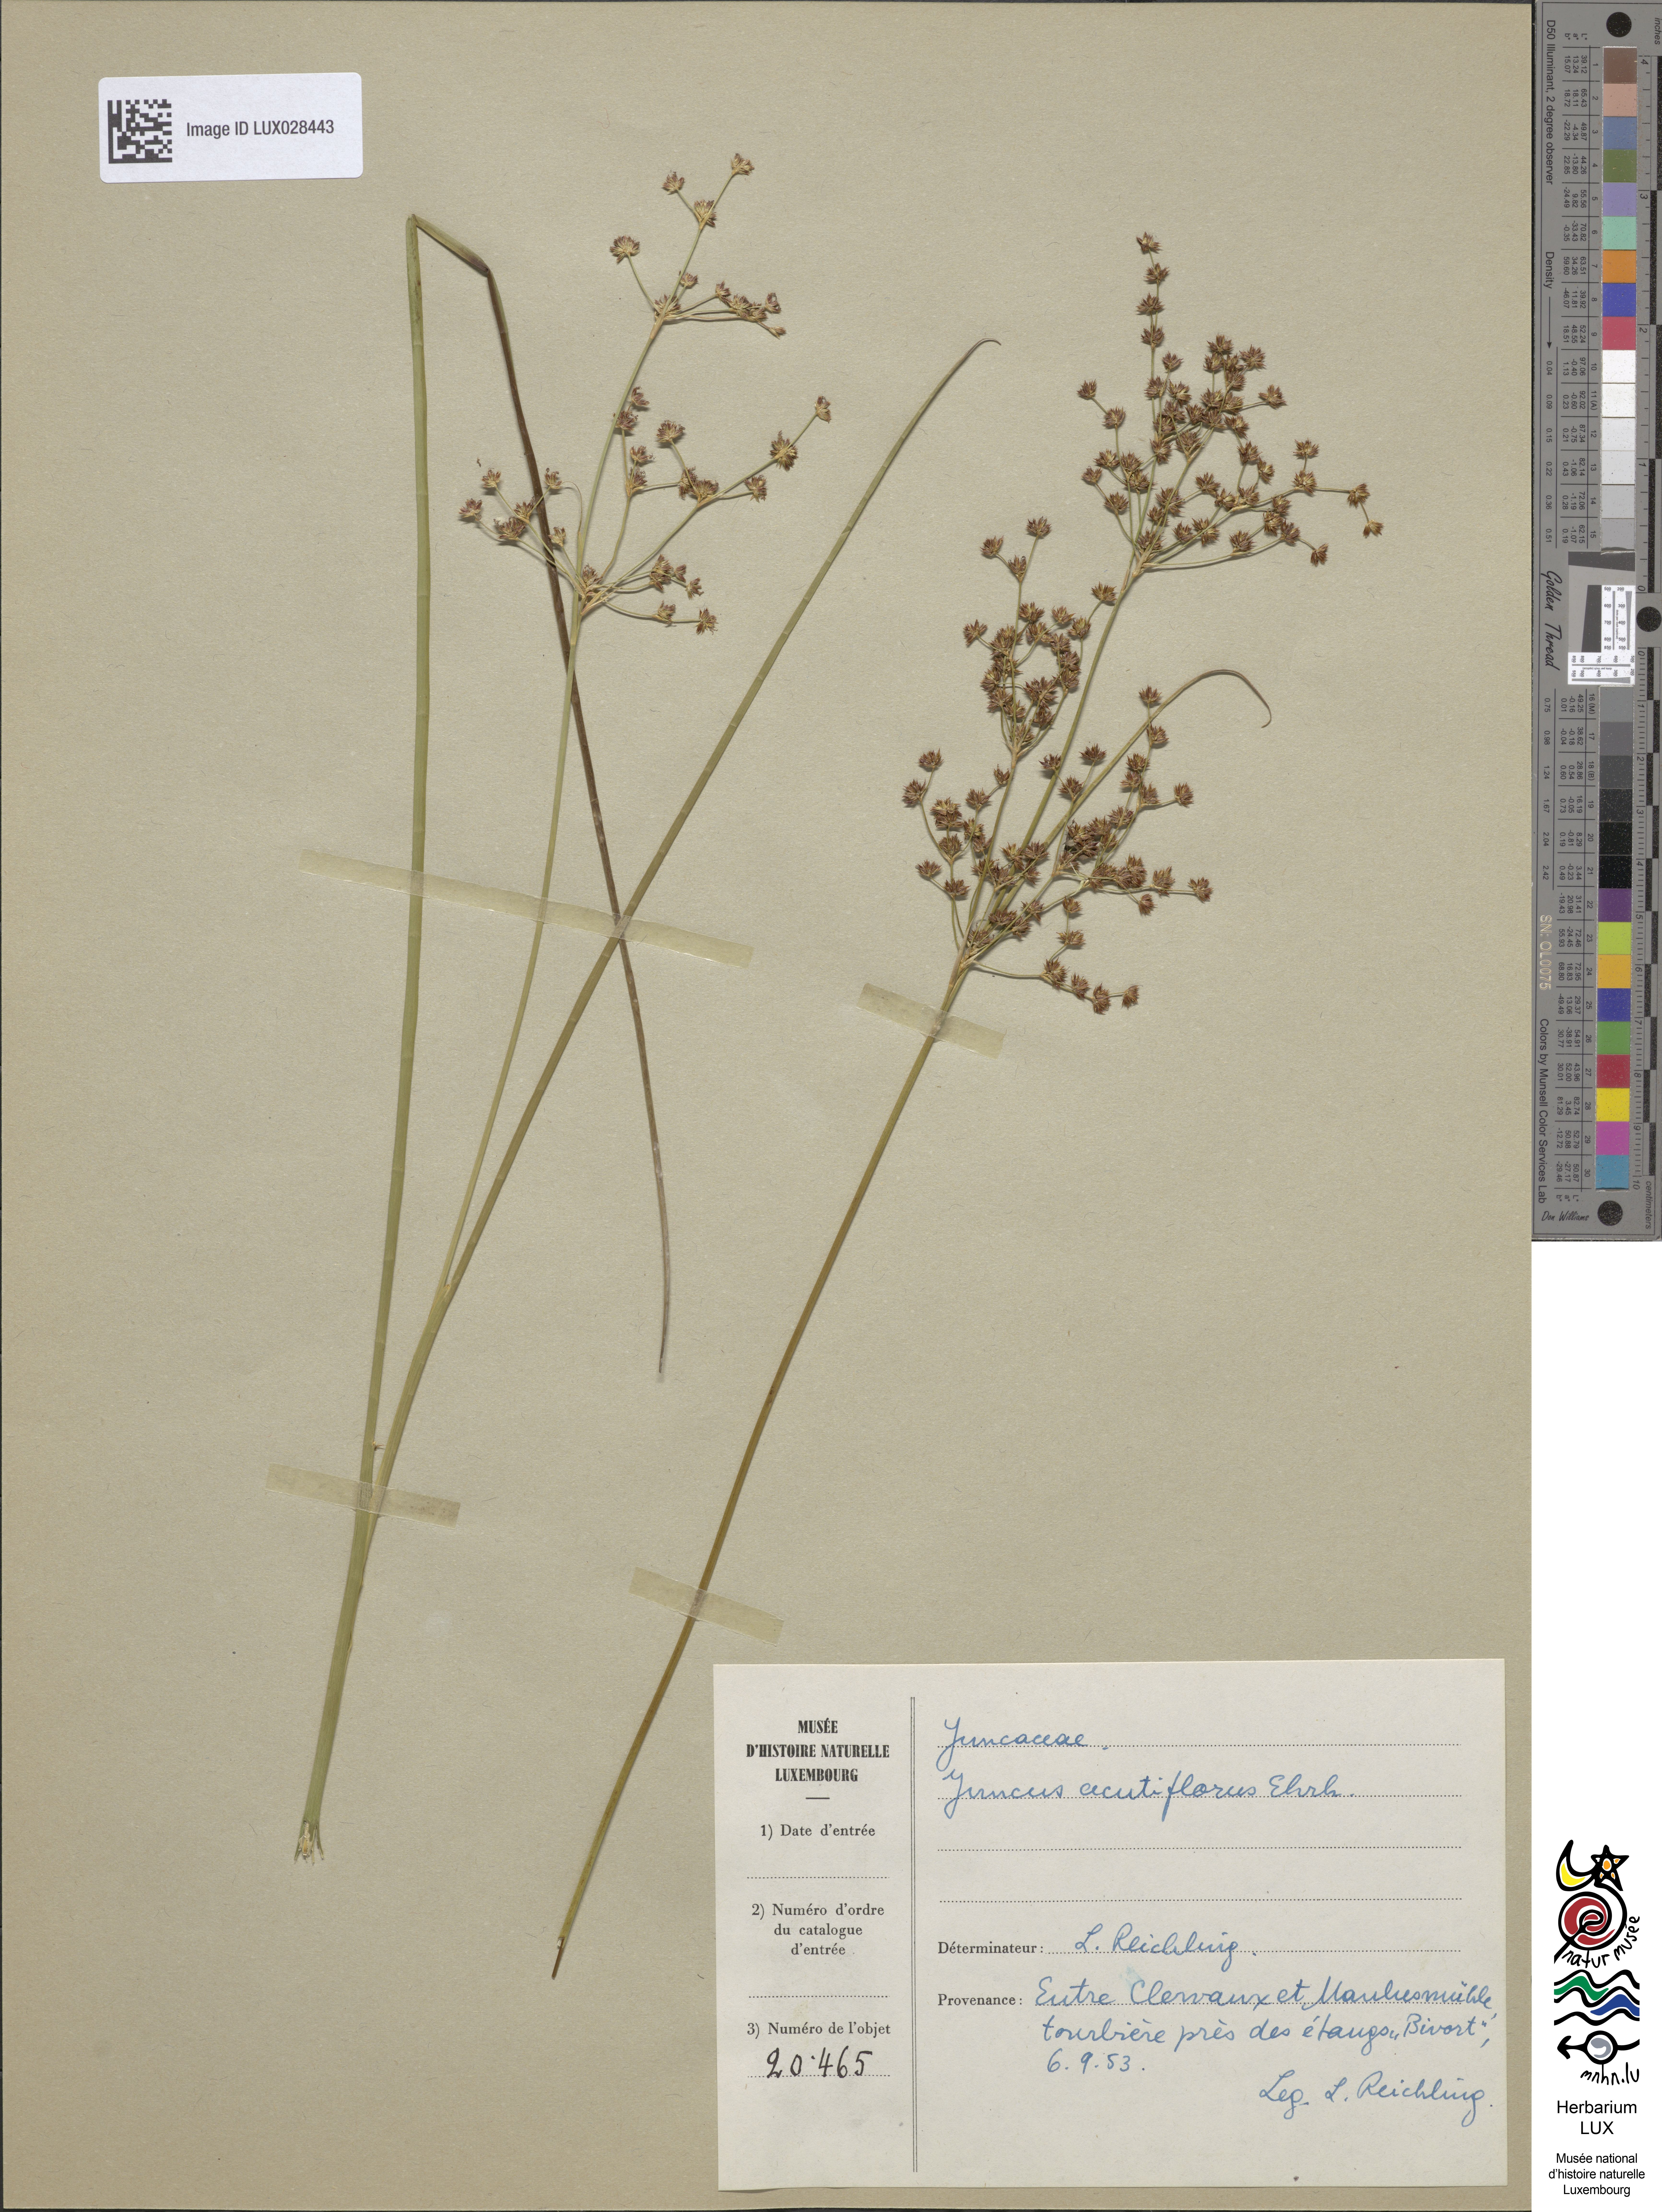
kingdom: Plantae
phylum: Tracheophyta
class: Liliopsida
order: Poales
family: Juncaceae
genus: Juncus
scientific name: Juncus acutiflorus
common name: Sharp-flowered rush
